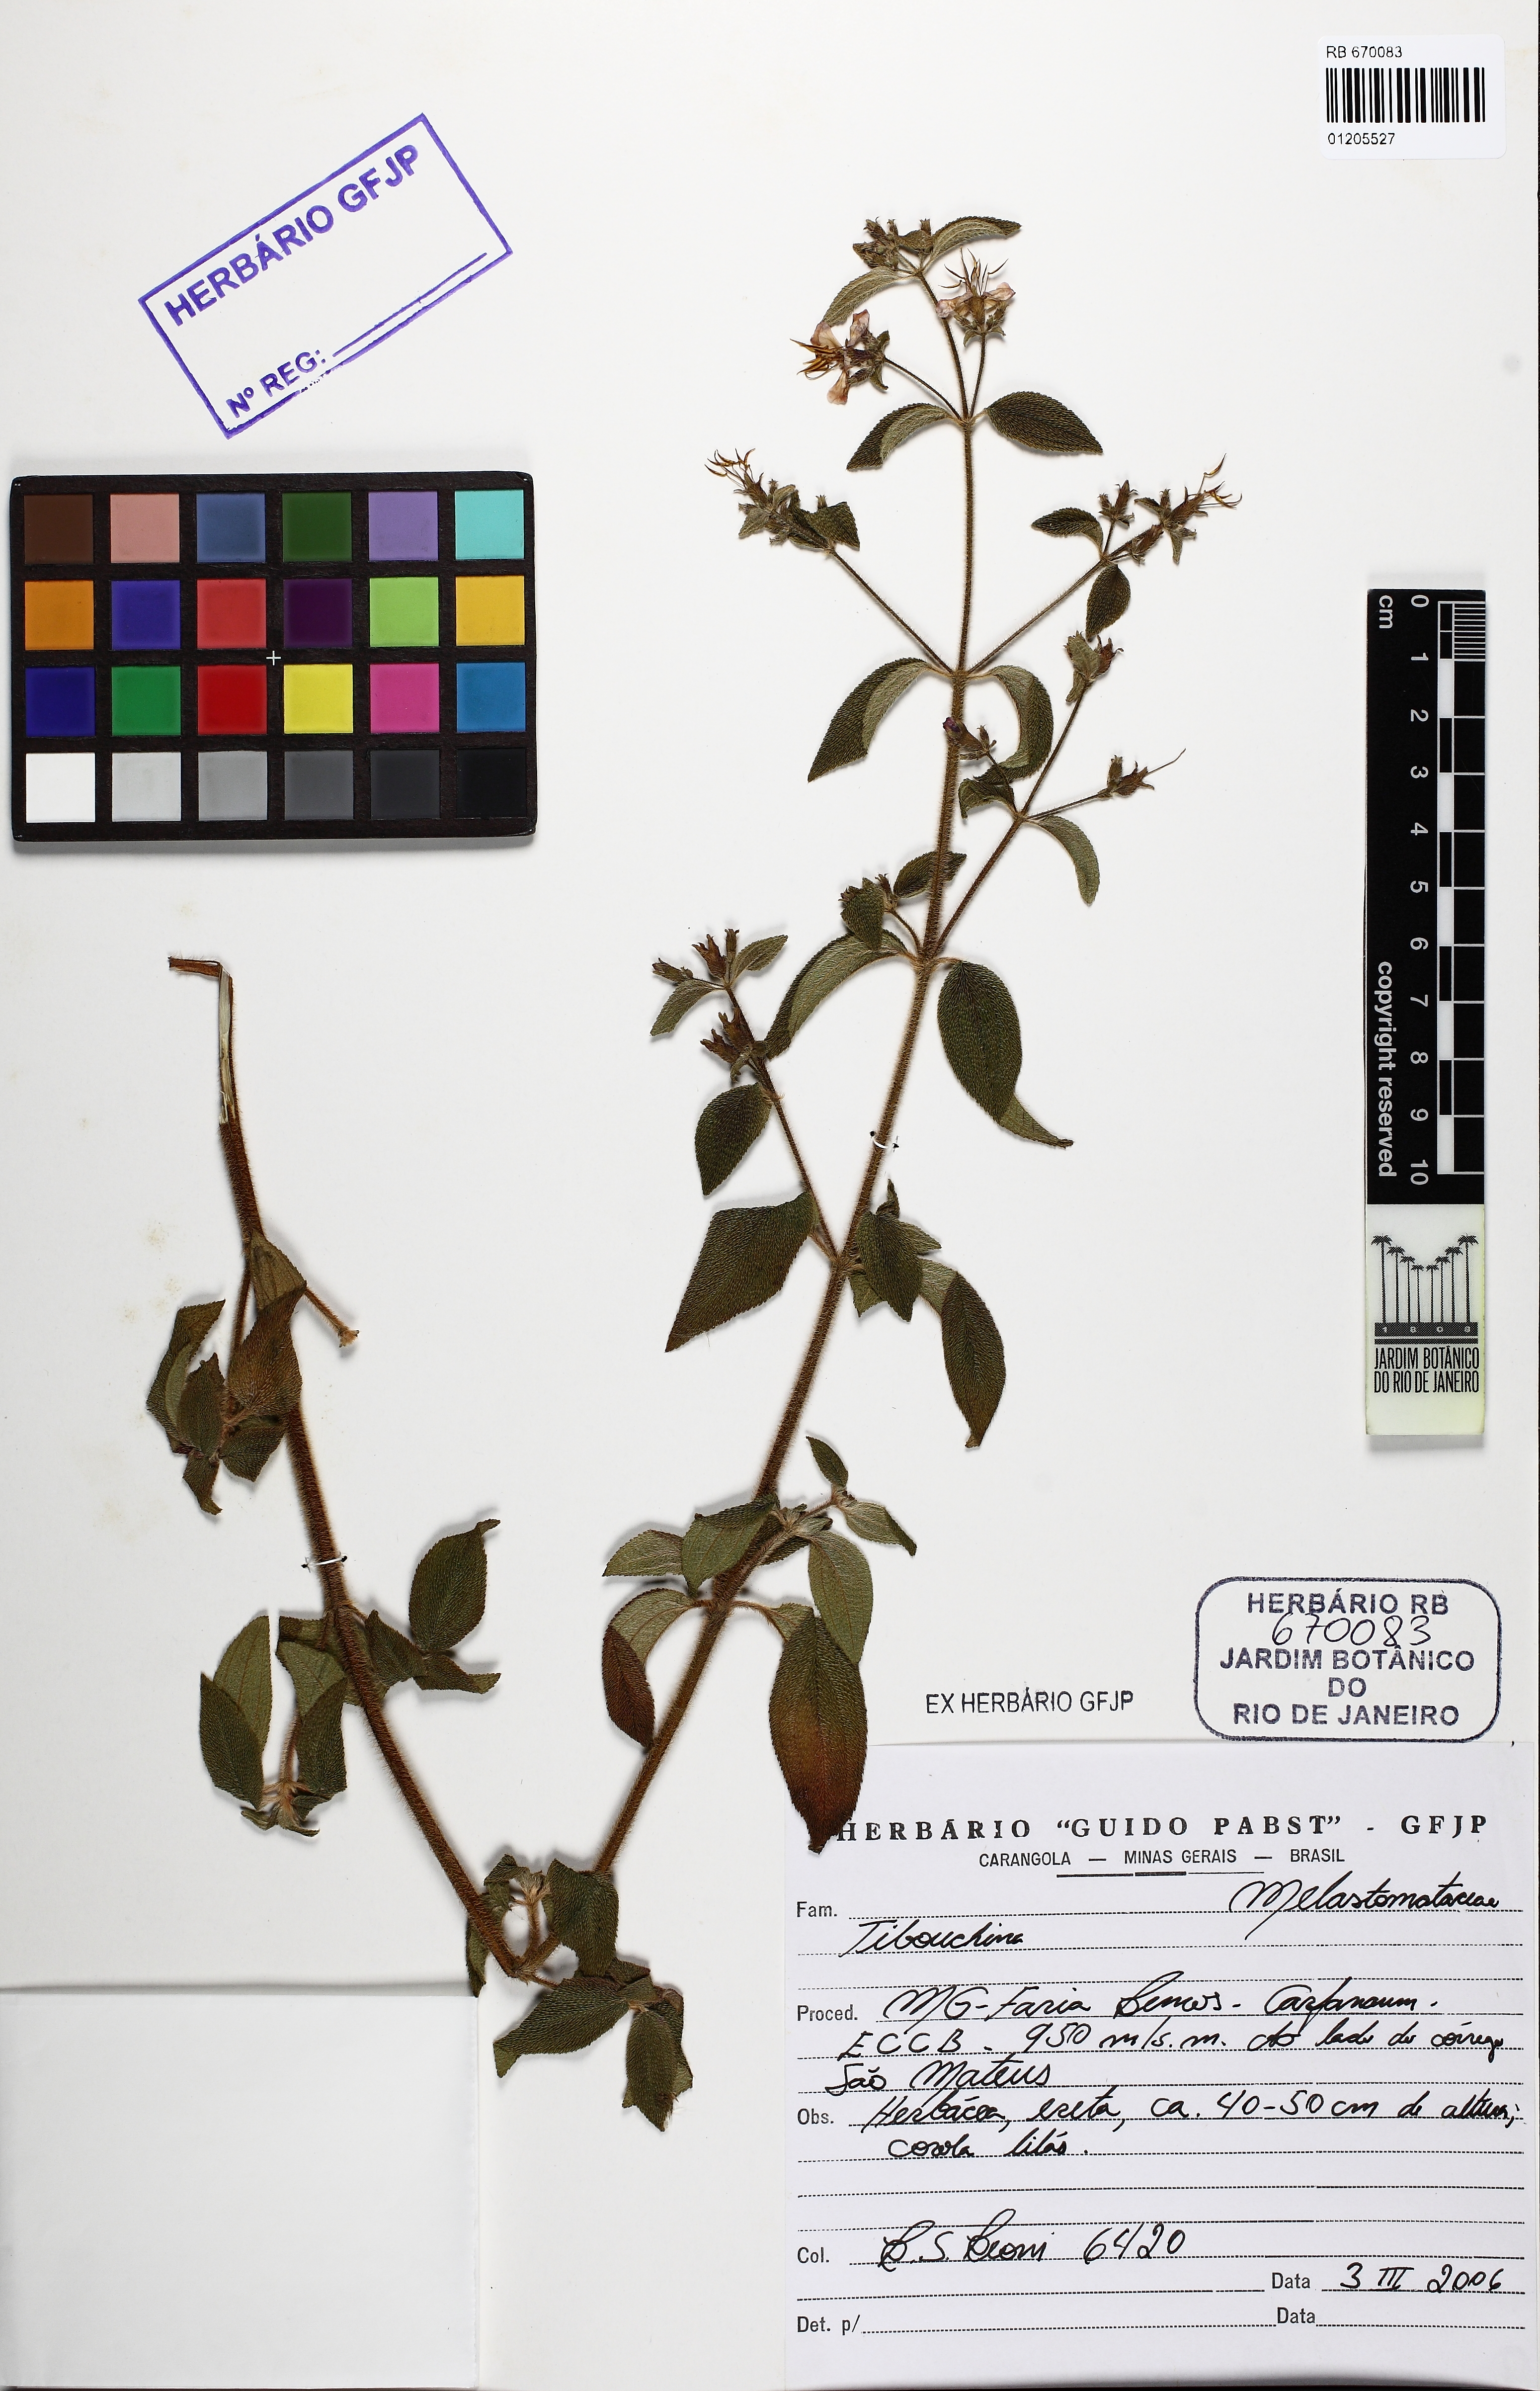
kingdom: Plantae
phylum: Tracheophyta
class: Magnoliopsida
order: Myrtales
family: Melastomataceae
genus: Tibouchina
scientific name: Tibouchina
